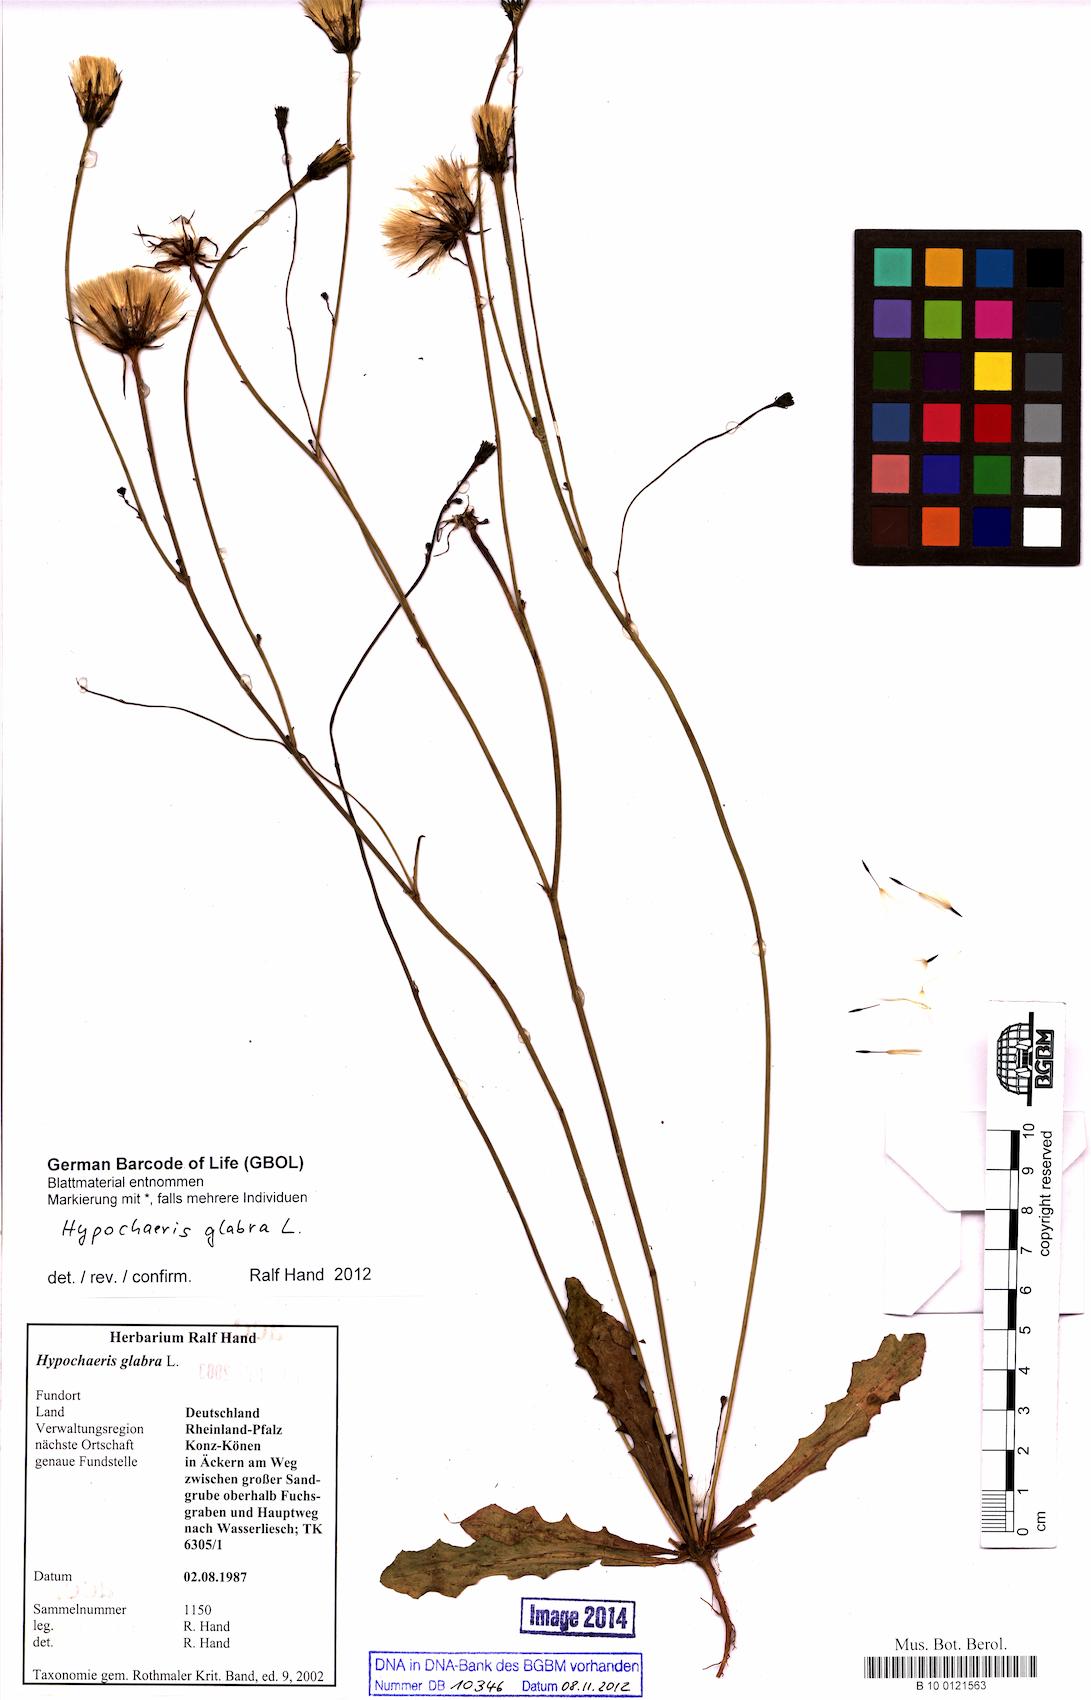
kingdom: Plantae
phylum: Tracheophyta
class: Magnoliopsida
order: Asterales
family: Asteraceae
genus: Hypochaeris
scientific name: Hypochaeris glabra
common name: Smooth catsear
